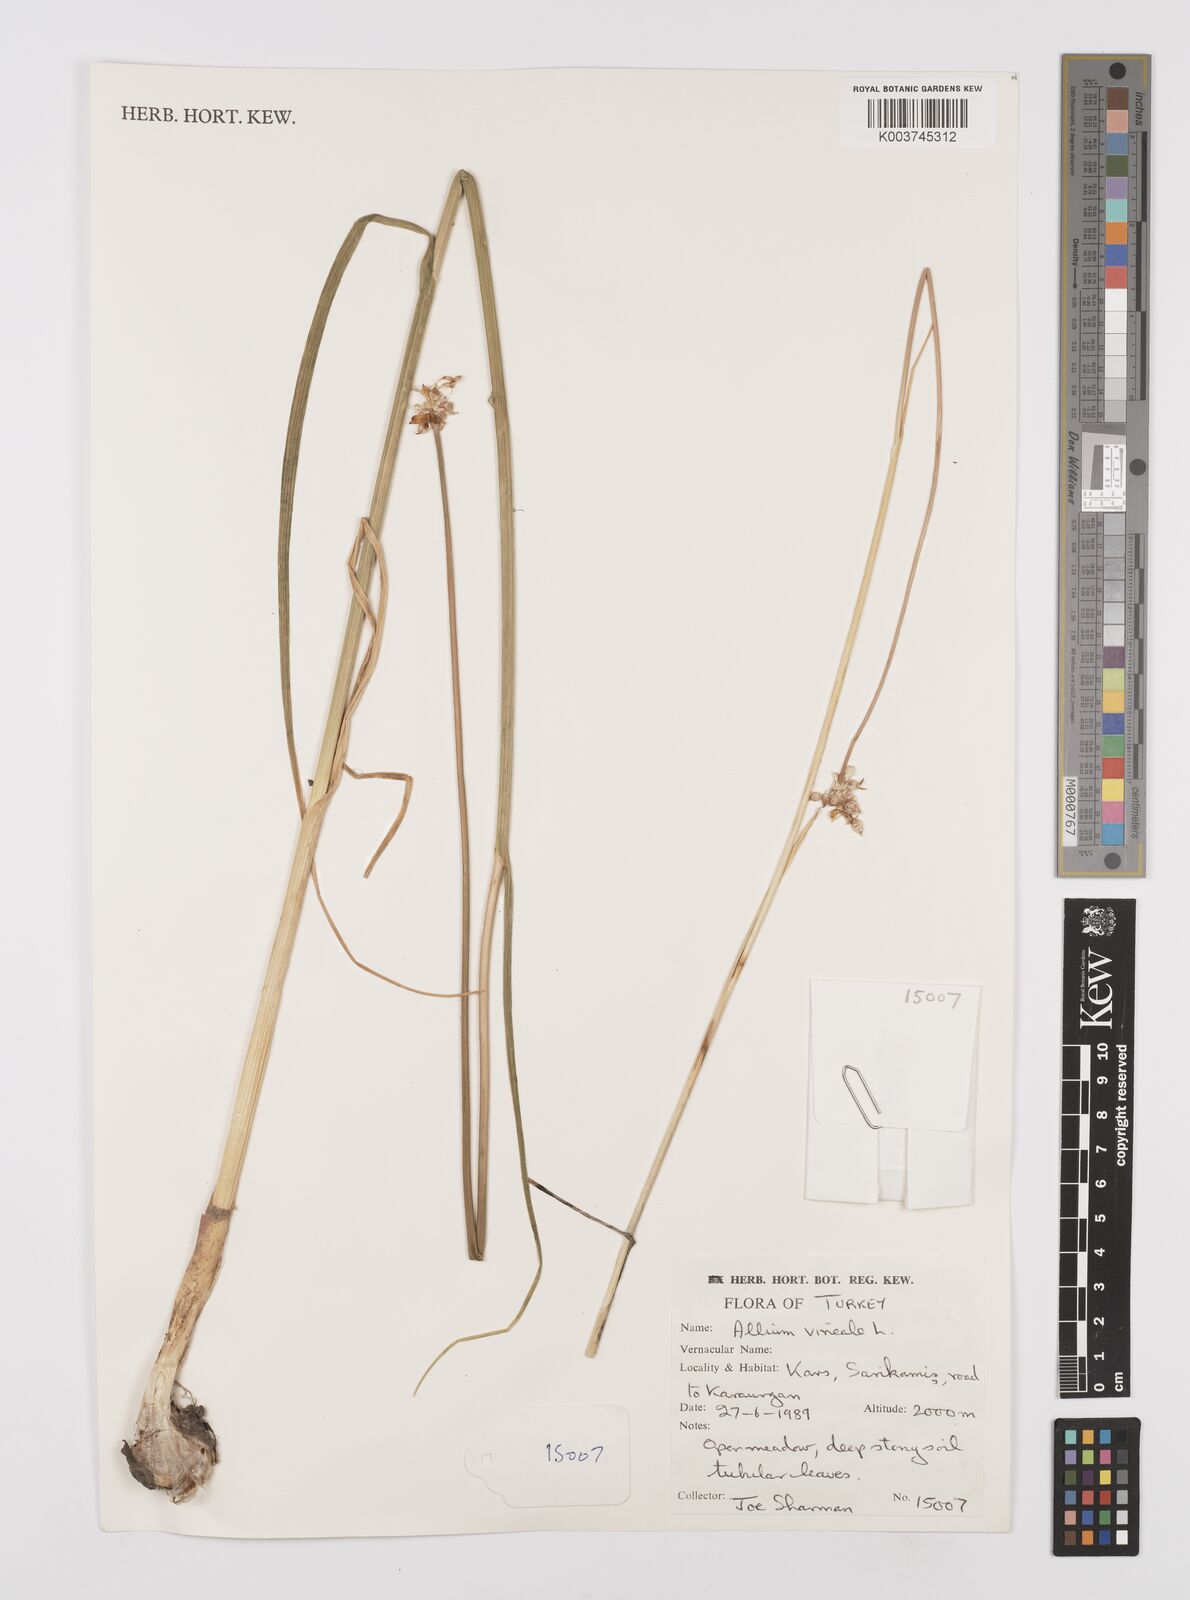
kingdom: Plantae
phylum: Tracheophyta
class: Liliopsida
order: Asparagales
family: Amaryllidaceae
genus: Allium
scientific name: Allium vineale
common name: Crow garlic
